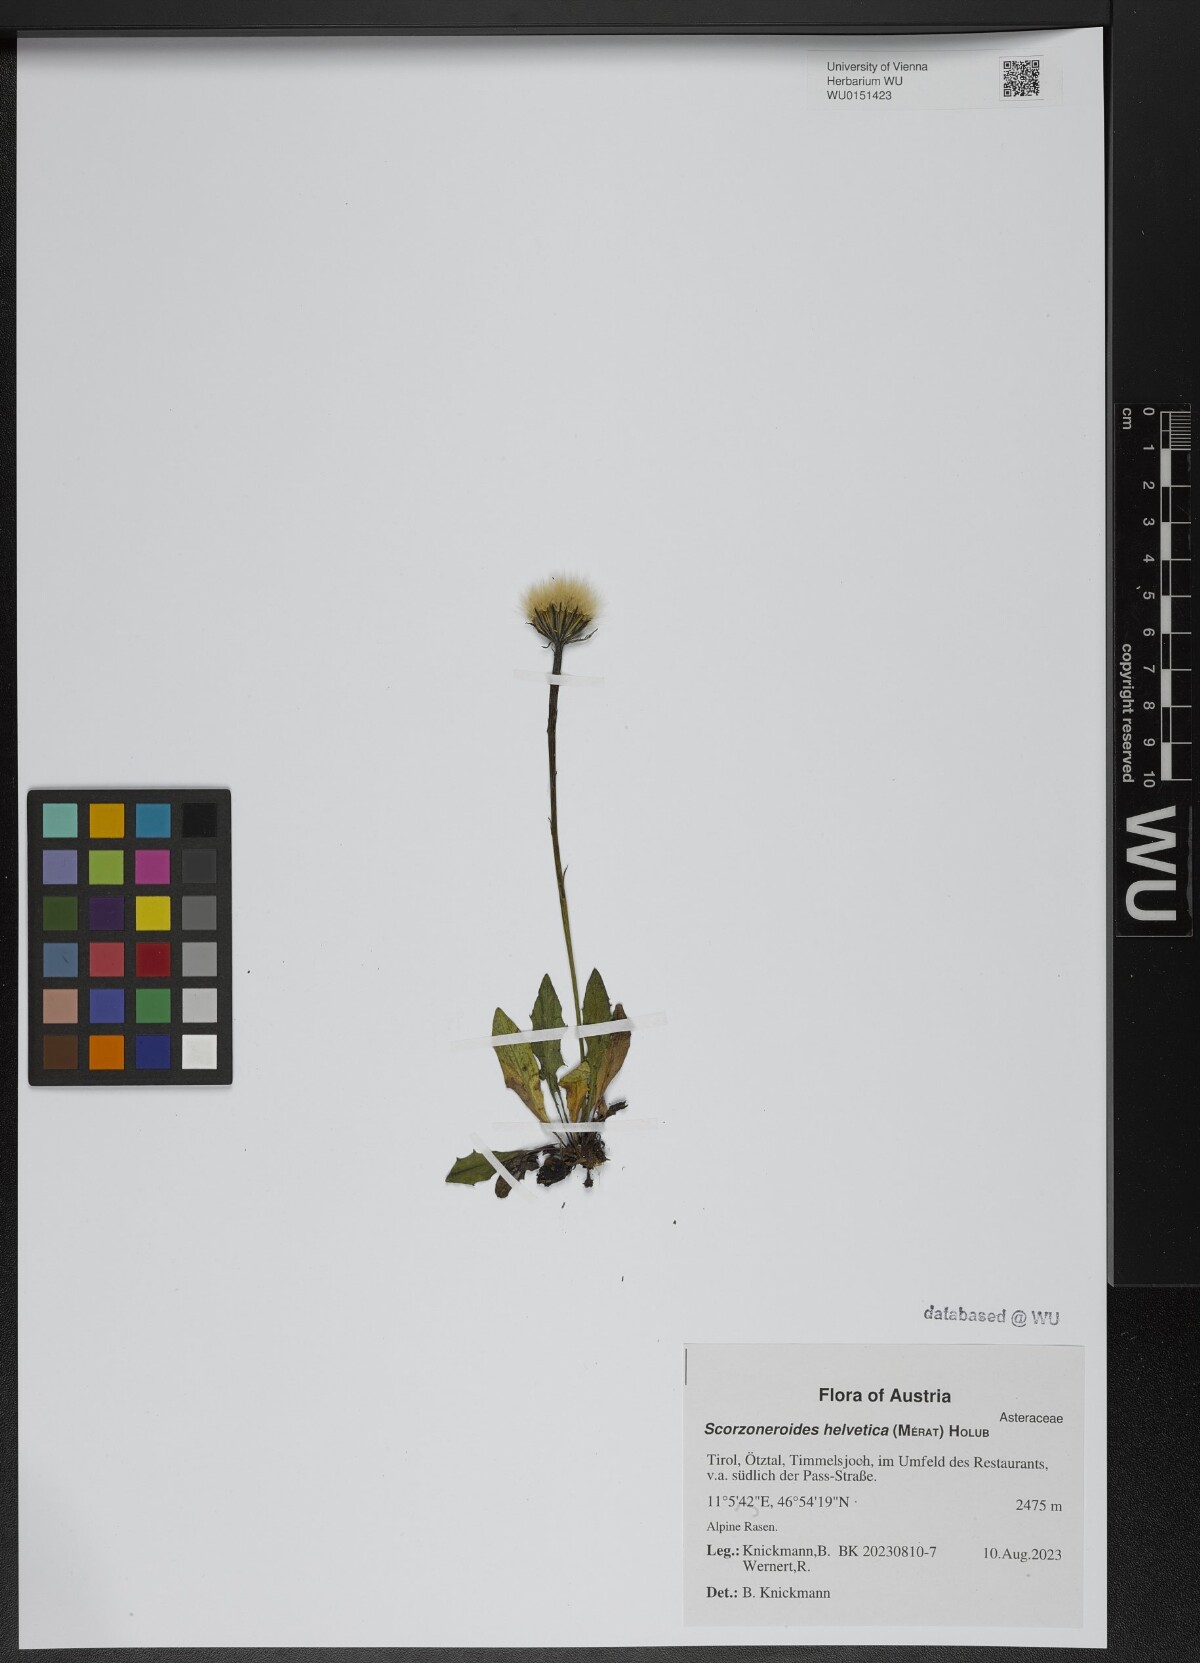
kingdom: Plantae
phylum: Tracheophyta
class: Magnoliopsida
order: Asterales
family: Asteraceae
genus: Scorzoneroides
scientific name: Scorzoneroides helvetica
